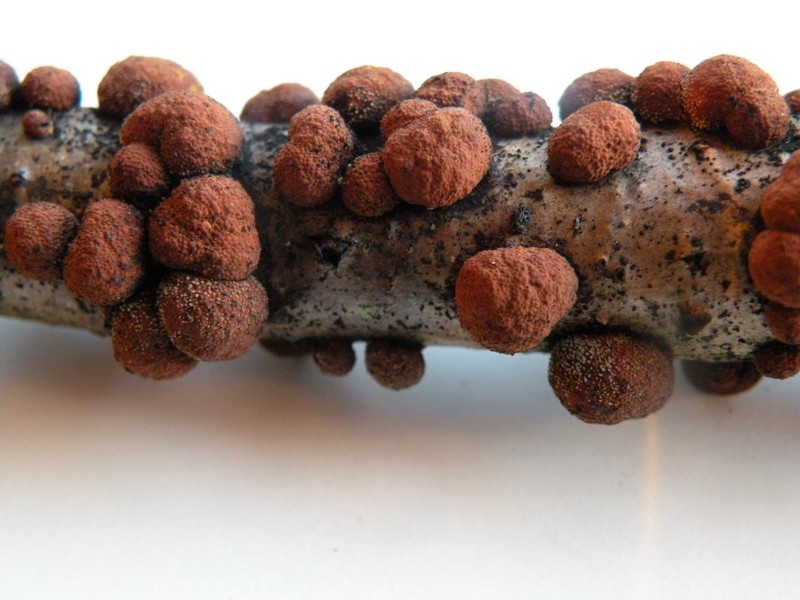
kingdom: Fungi
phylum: Ascomycota
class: Sordariomycetes
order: Xylariales
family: Hypoxylaceae
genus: Hypoxylon
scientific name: Hypoxylon howeanum
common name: halvkugleformet kulbær
